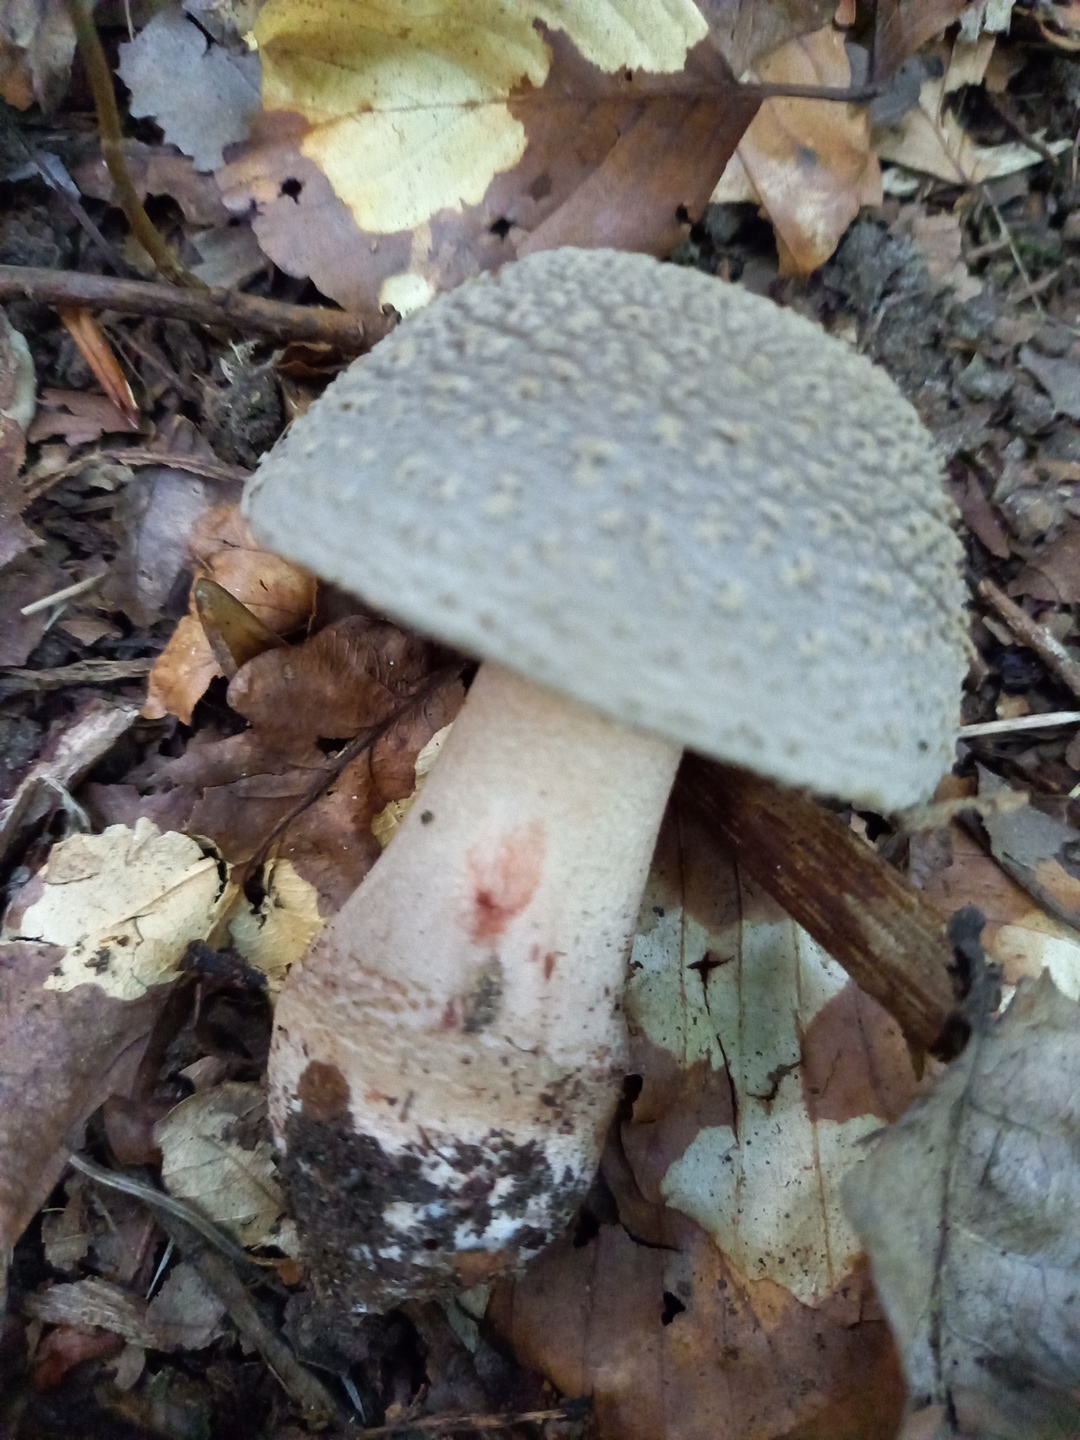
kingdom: Fungi
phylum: Basidiomycota
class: Agaricomycetes
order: Agaricales
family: Amanitaceae
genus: Amanita
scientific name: Amanita rubescens
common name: rødmende fluesvamp
